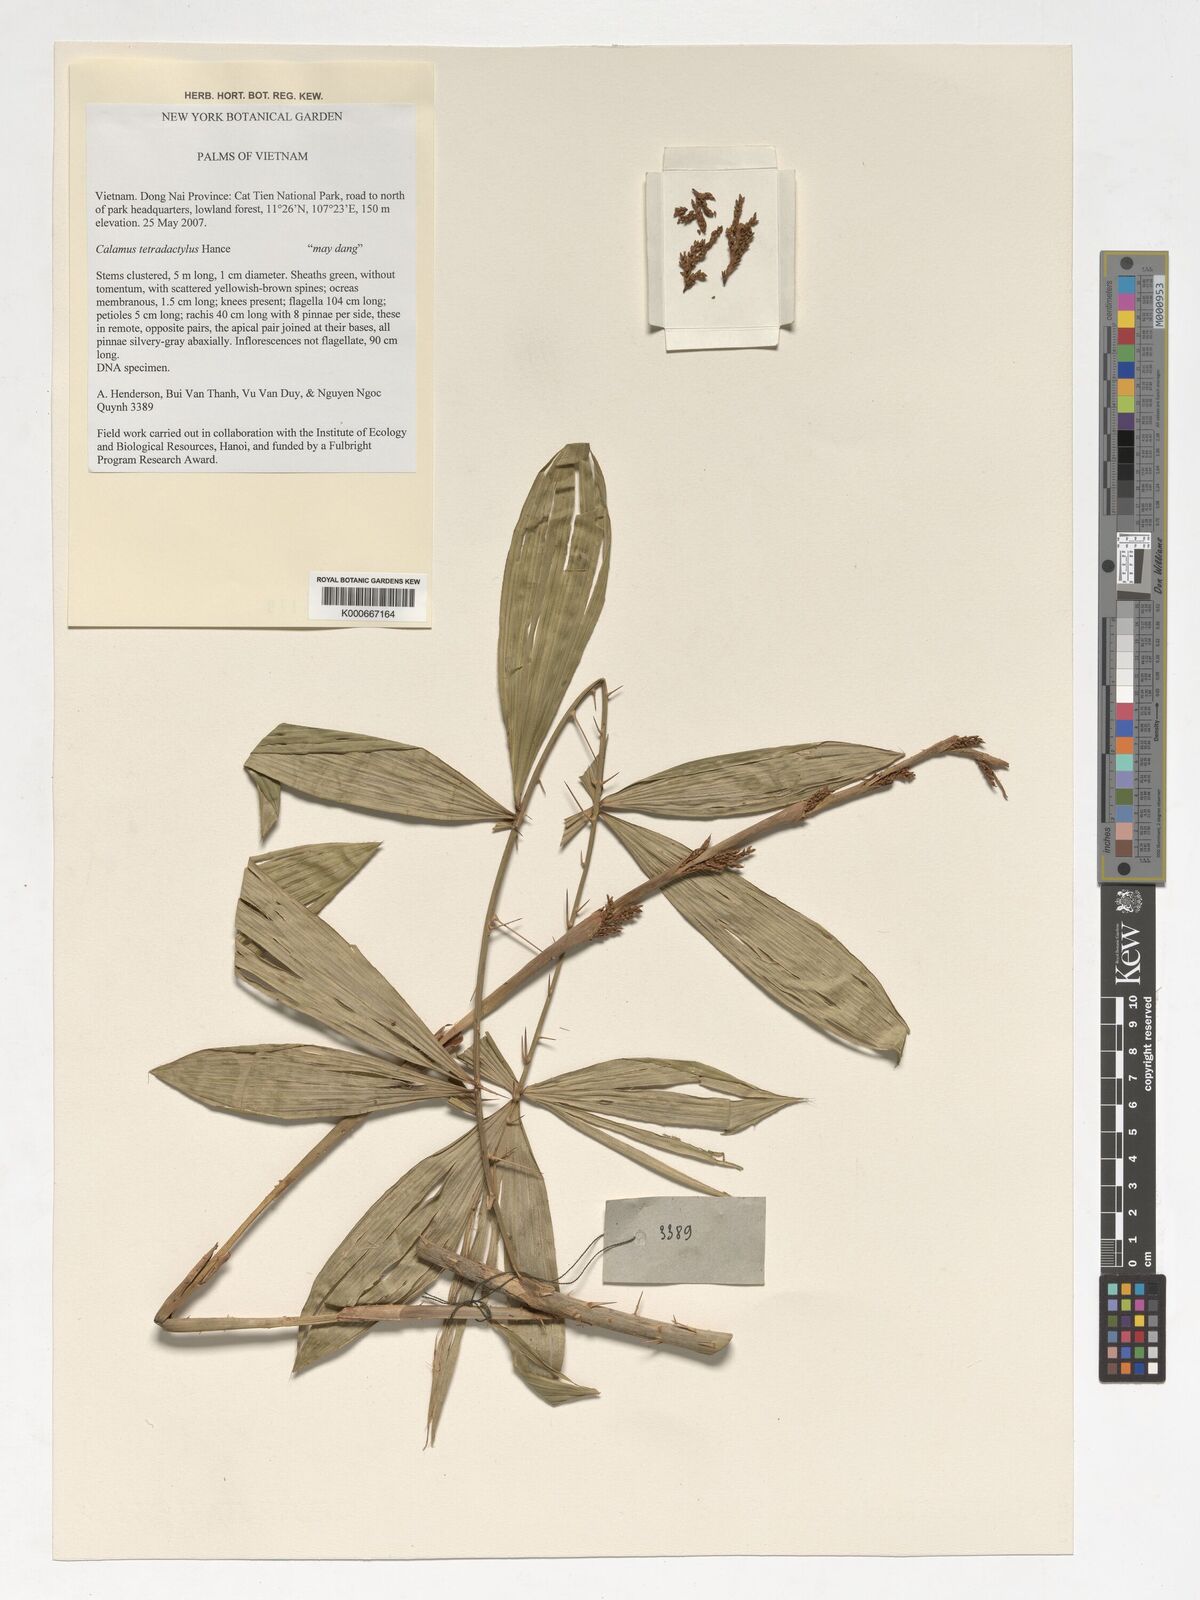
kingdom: Plantae
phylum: Tracheophyta
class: Liliopsida
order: Arecales
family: Arecaceae
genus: Calamus
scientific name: Calamus tetradactylus
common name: White rattan
